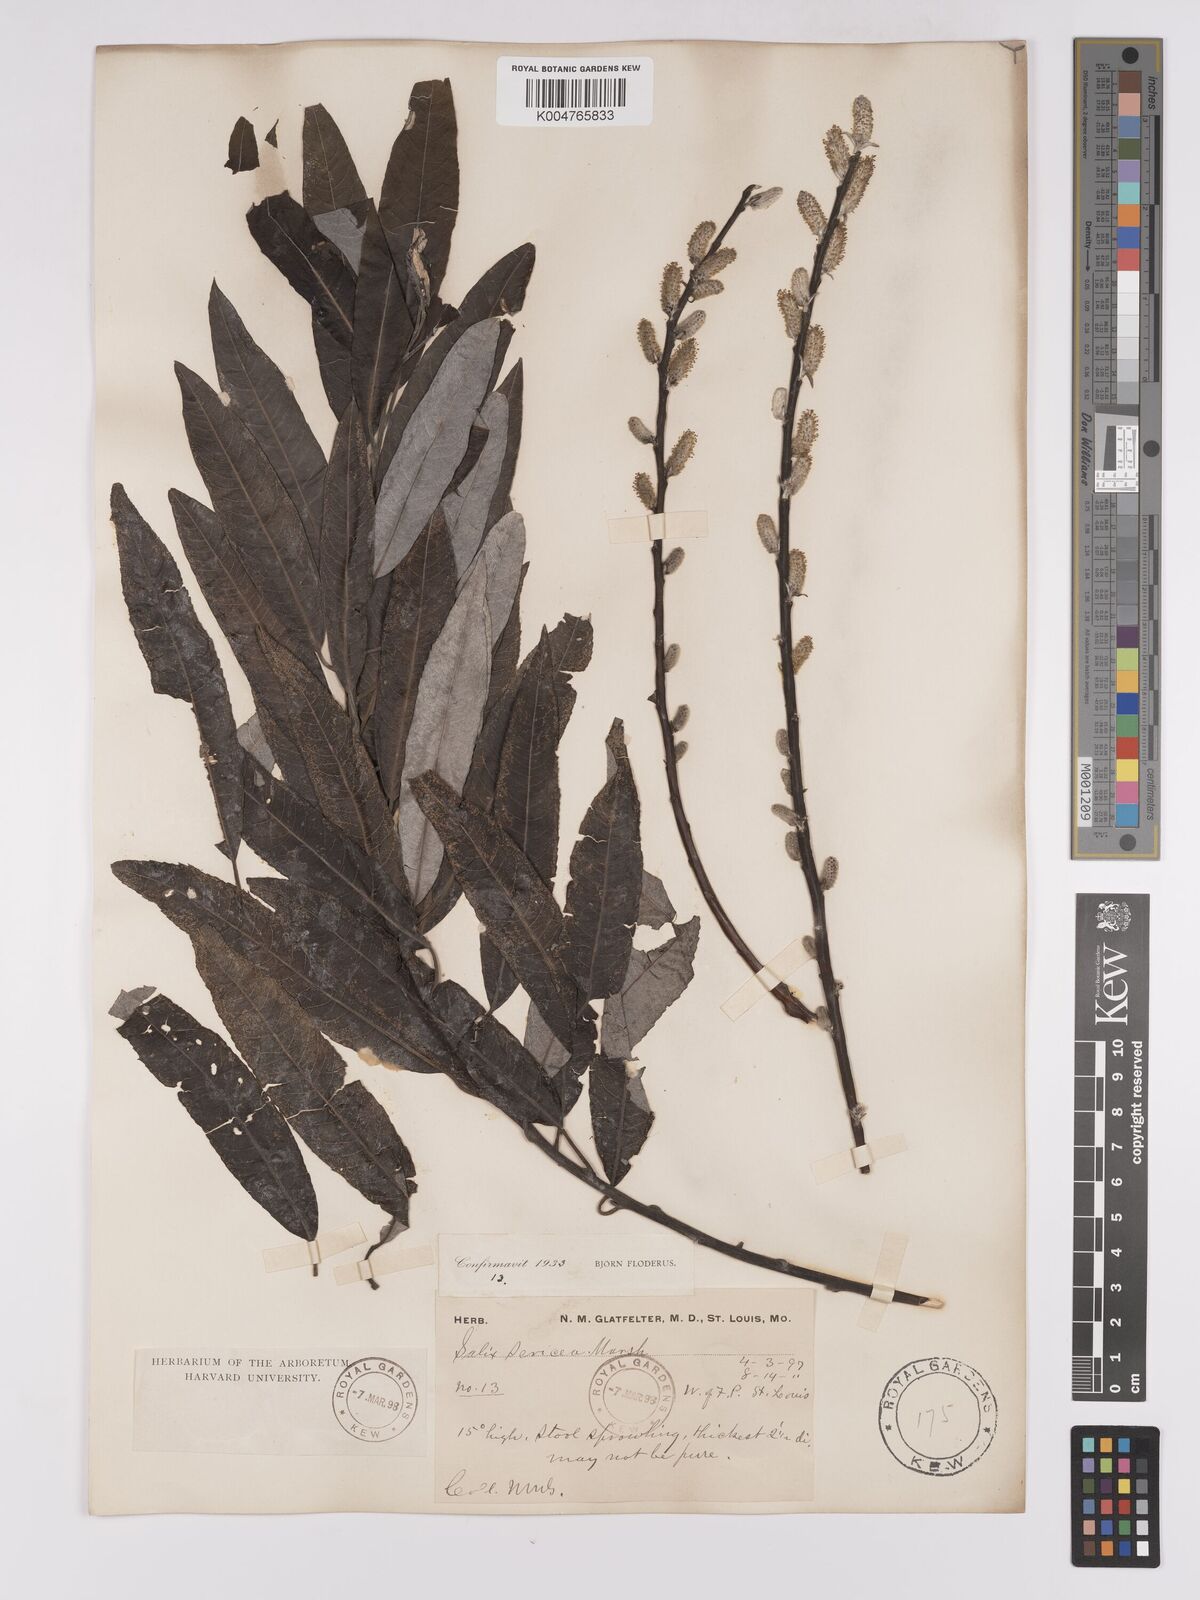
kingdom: Plantae
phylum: Tracheophyta
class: Magnoliopsida
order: Malpighiales
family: Salicaceae
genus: Salix
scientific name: Salix
